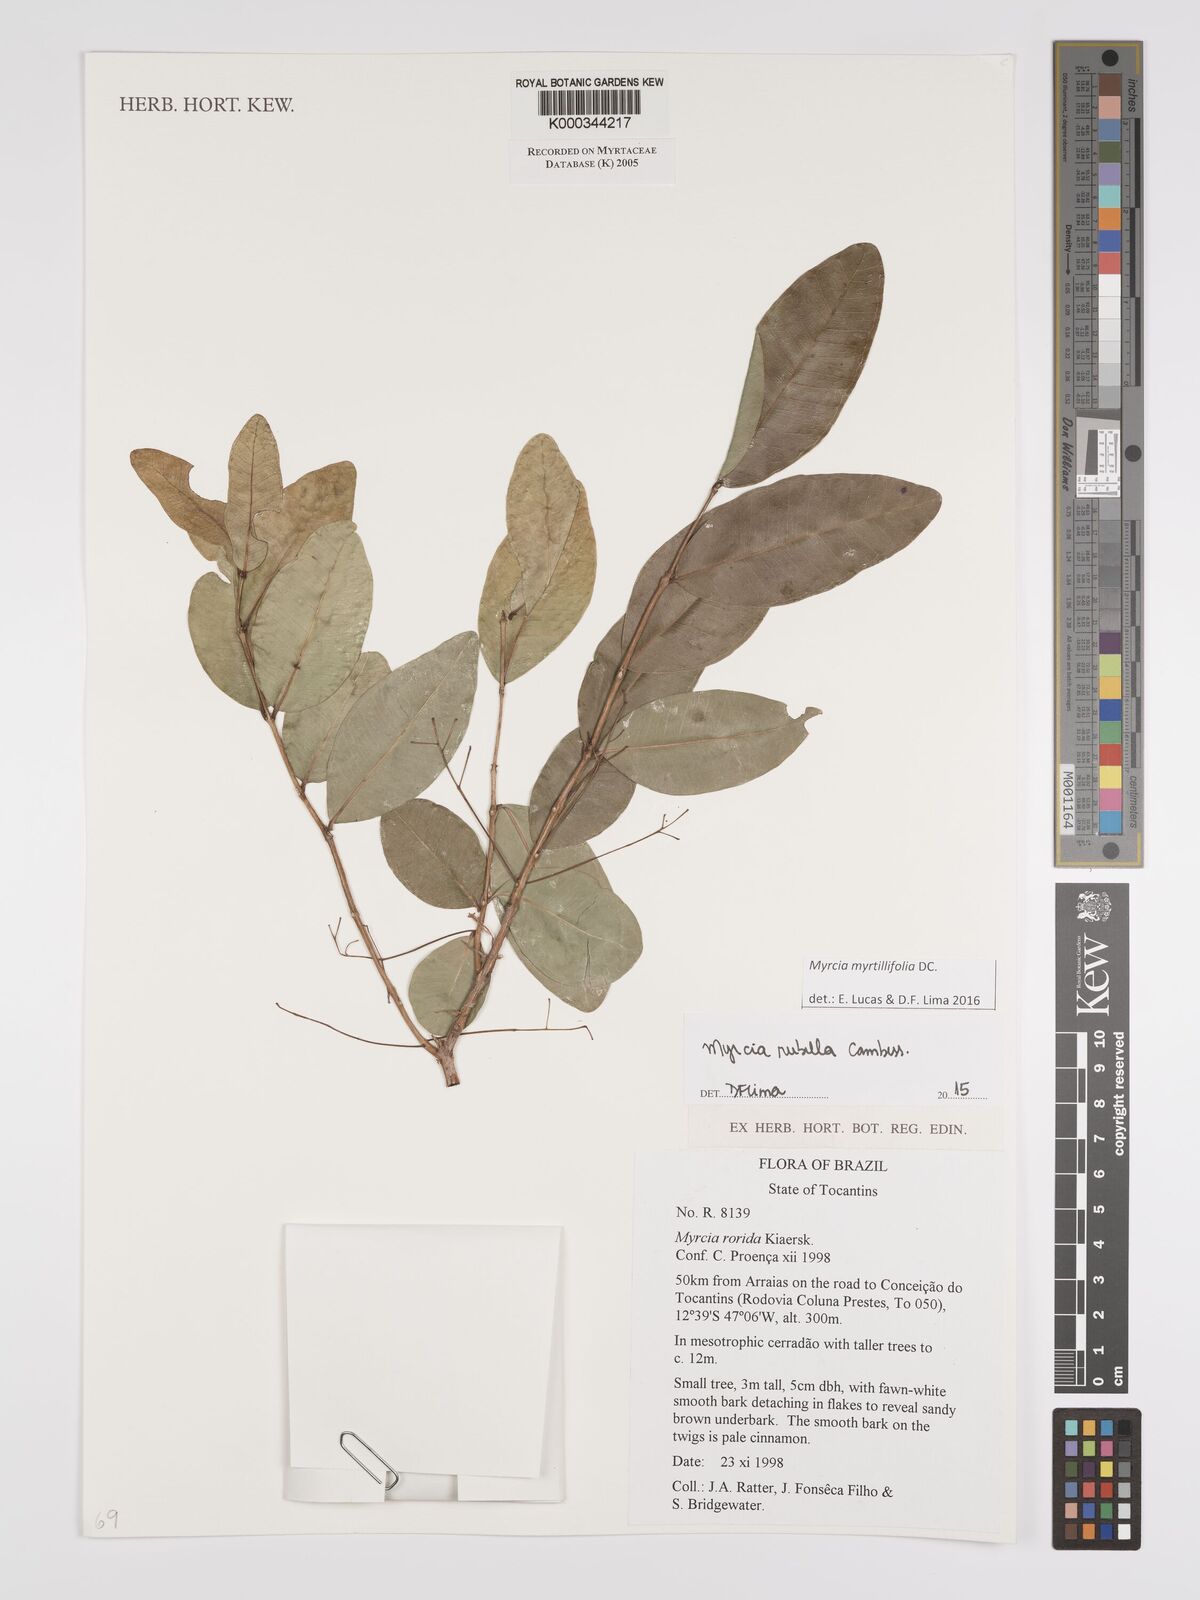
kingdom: Plantae
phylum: Tracheophyta
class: Magnoliopsida
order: Myrtales
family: Myrtaceae
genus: Myrcia
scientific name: Myrcia guianensis
